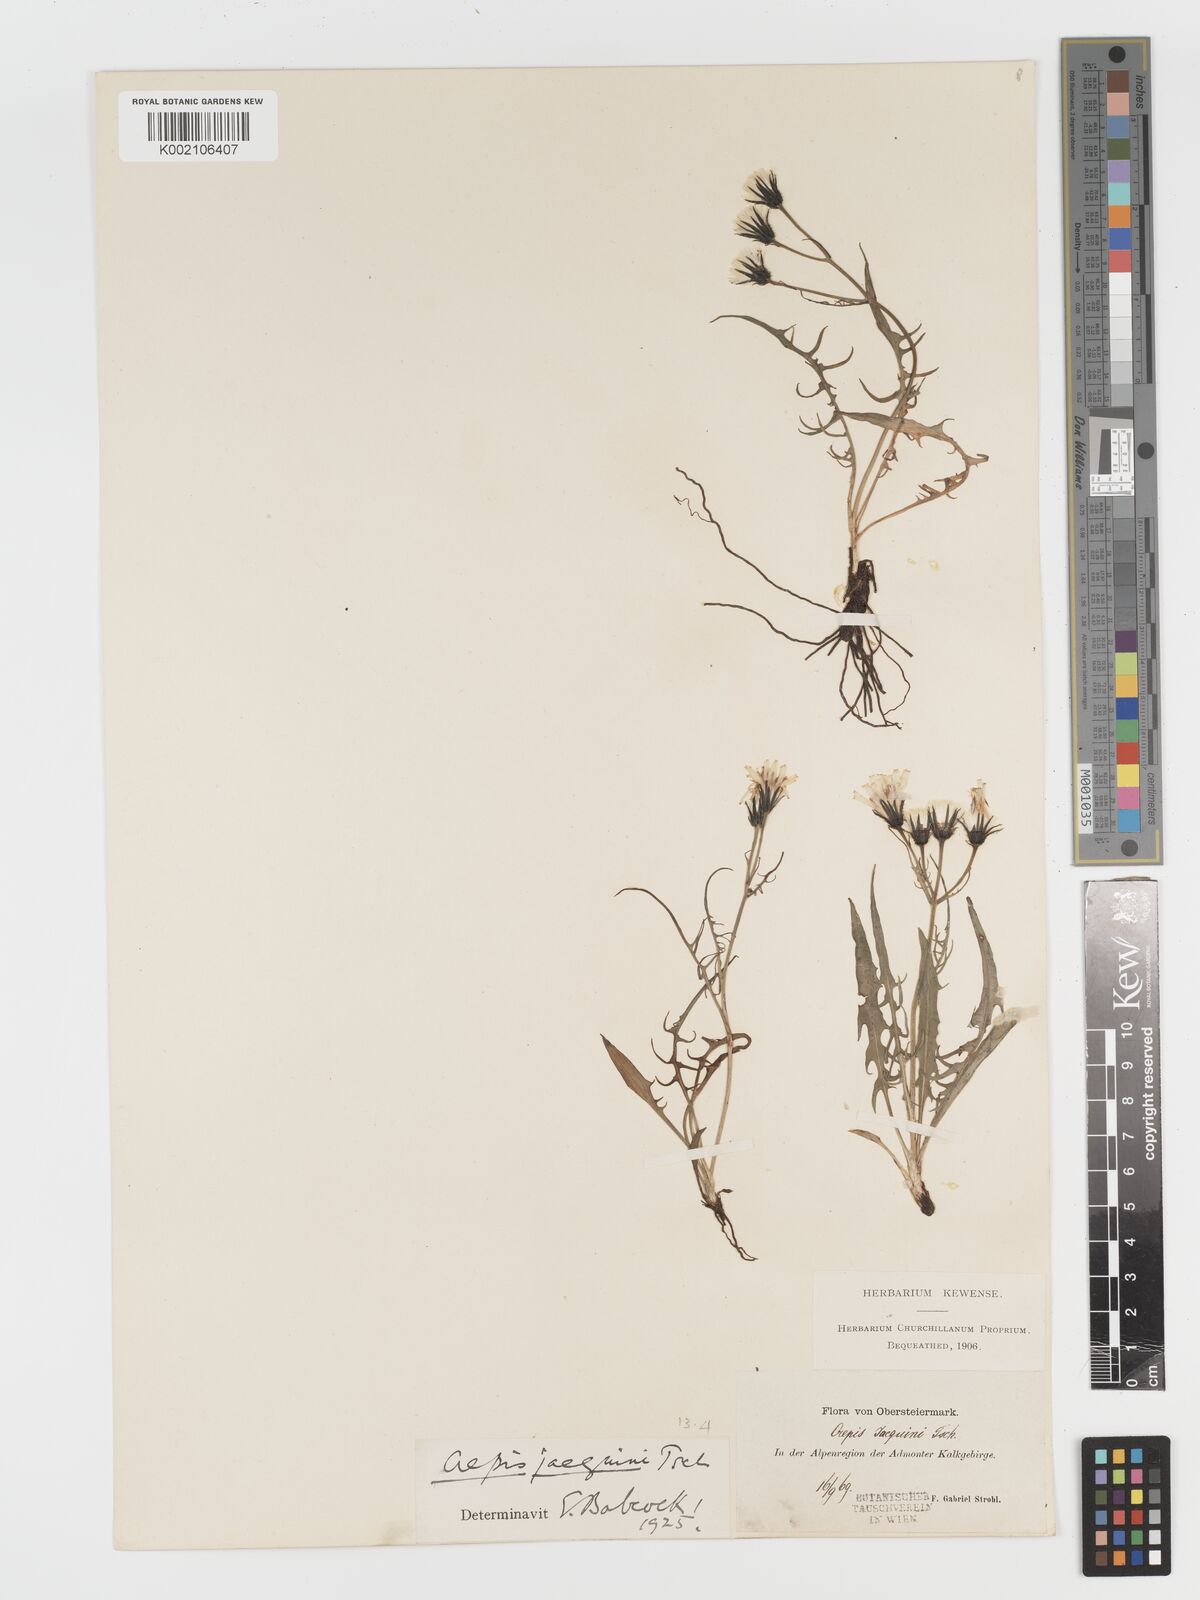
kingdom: Plantae
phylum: Tracheophyta
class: Magnoliopsida
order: Asterales
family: Asteraceae
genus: Crepis
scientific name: Crepis jacquinii
